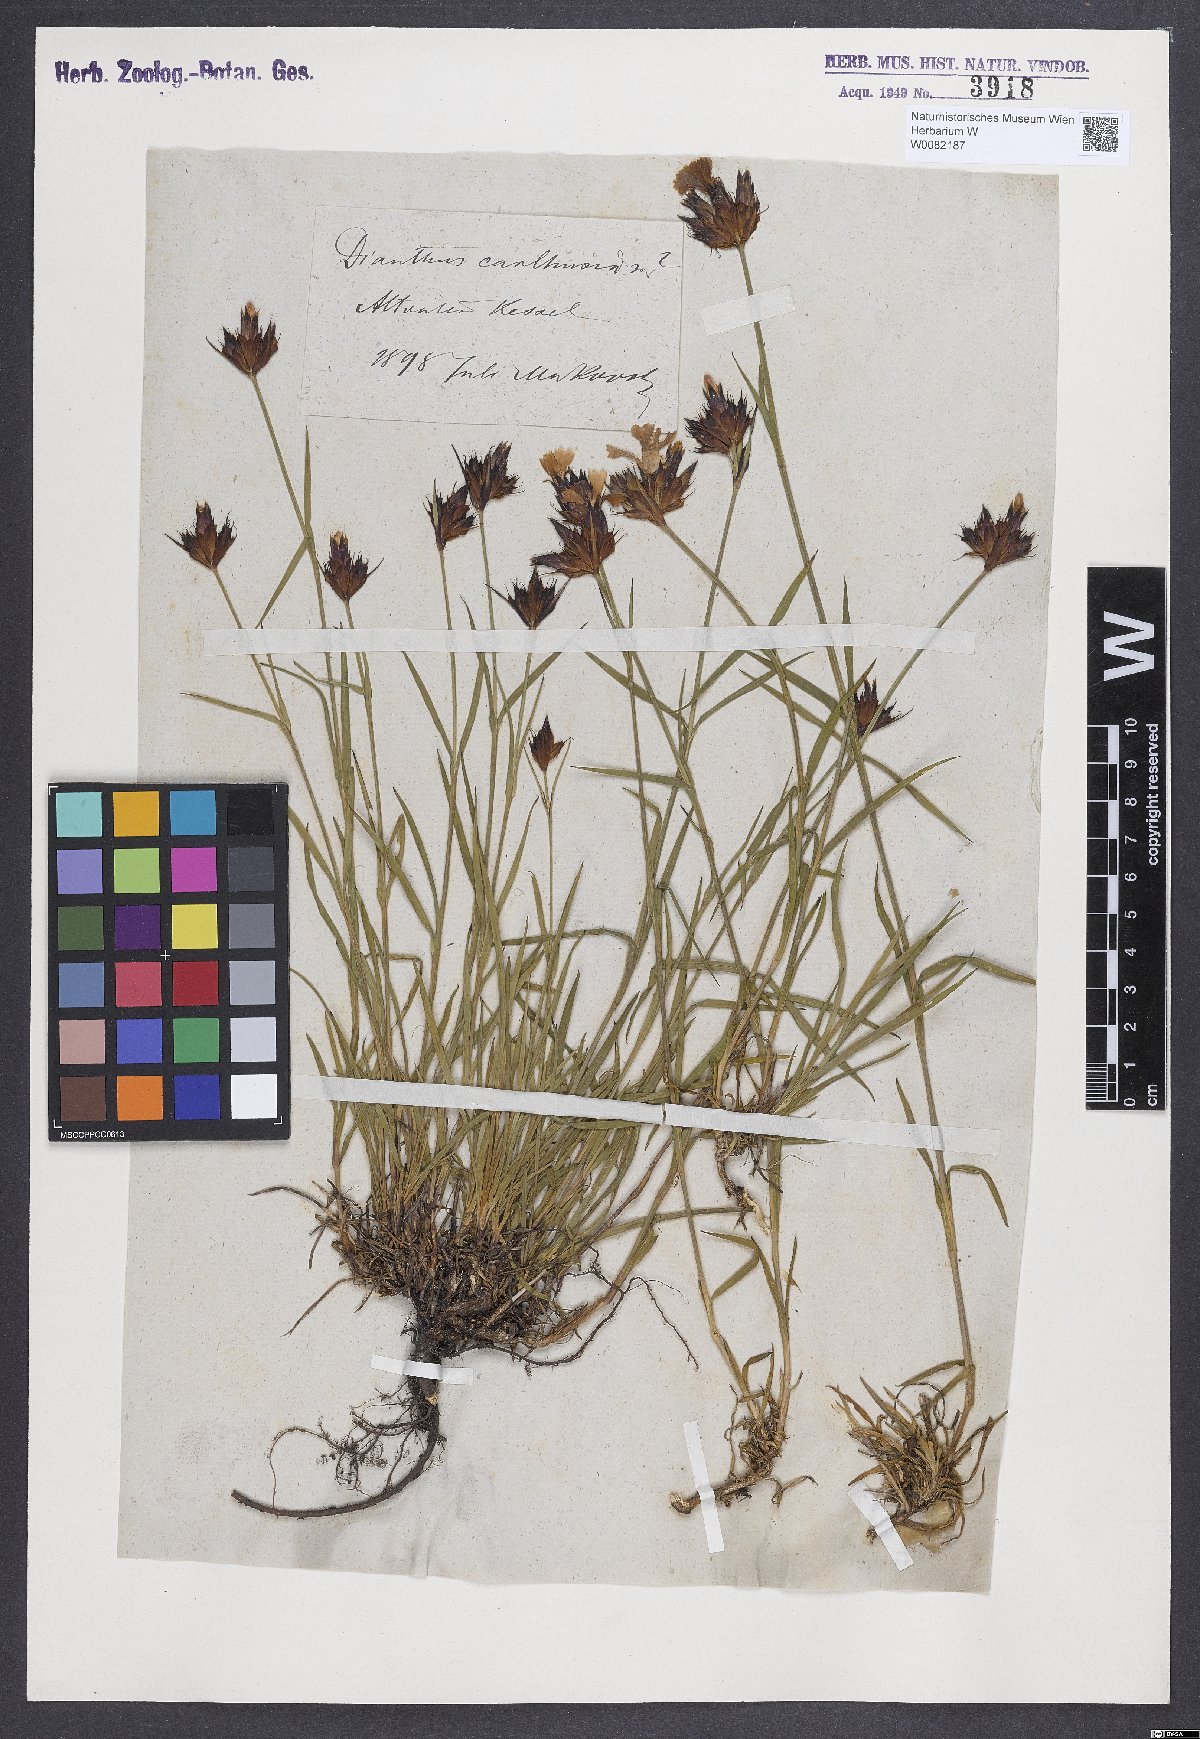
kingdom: Plantae
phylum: Tracheophyta
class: Magnoliopsida
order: Caryophyllales
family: Caryophyllaceae
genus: Dianthus
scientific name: Dianthus carthusianorum
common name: Carthusian pink
